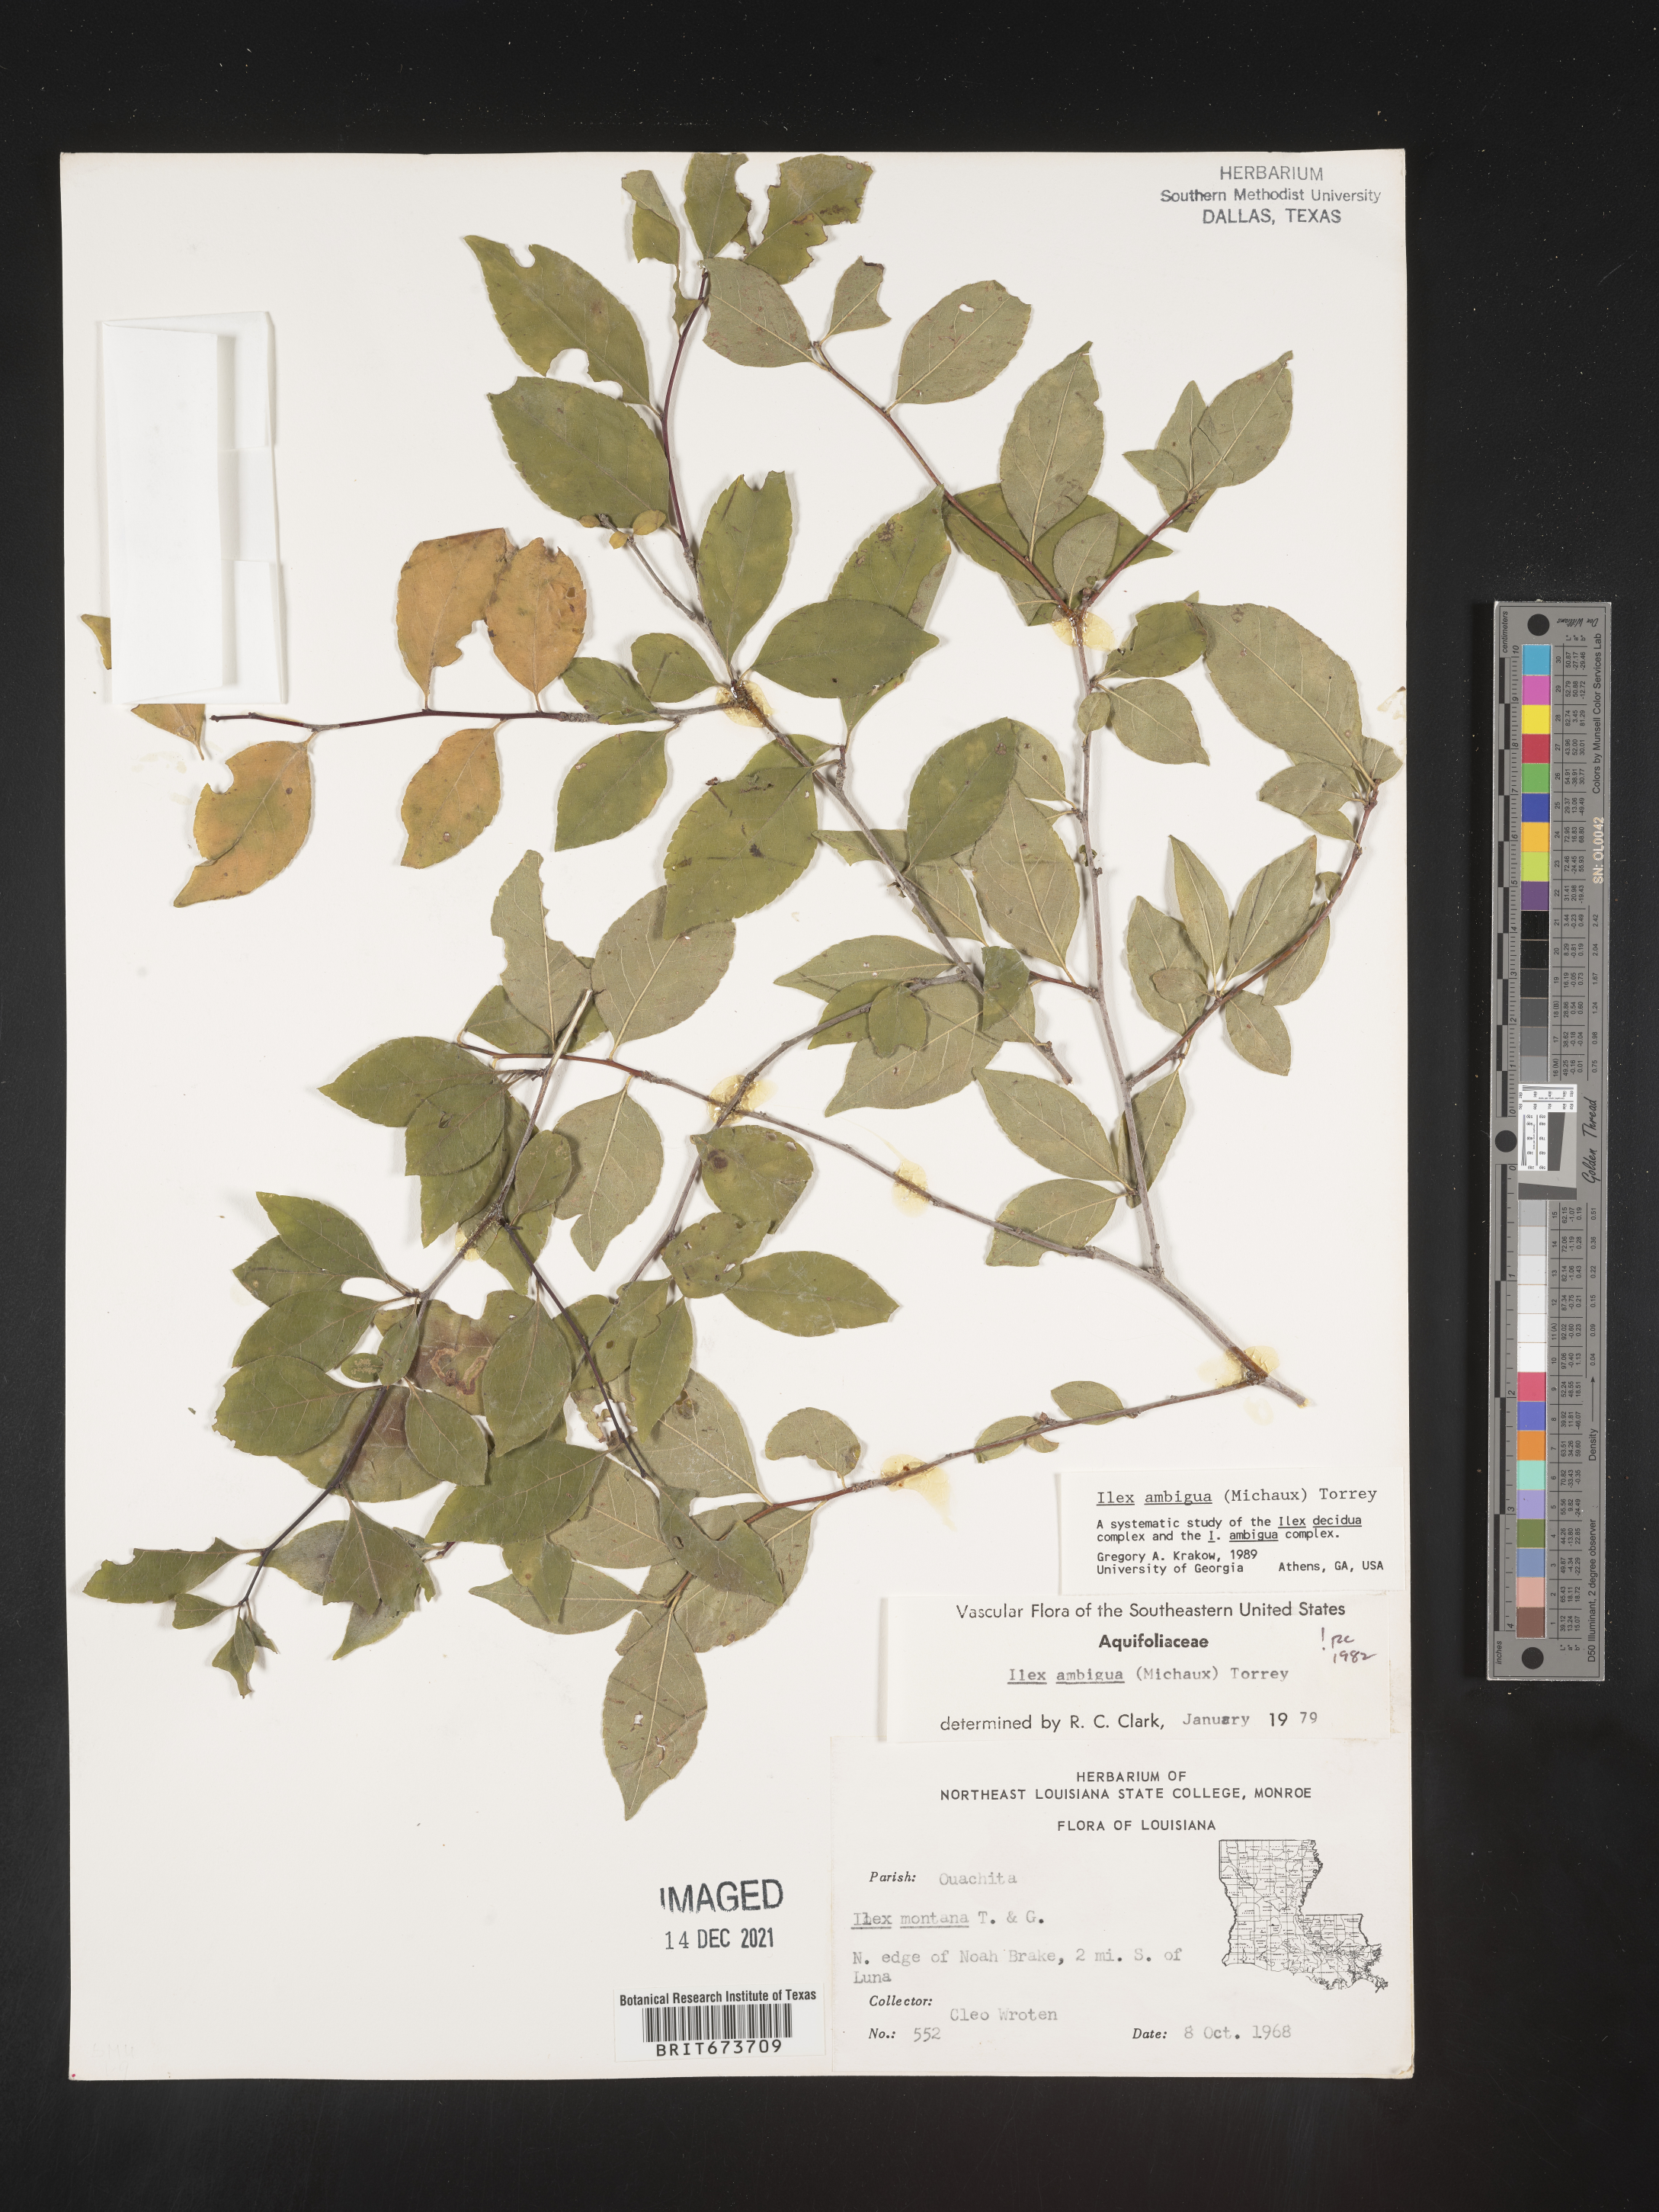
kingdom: Plantae
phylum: Tracheophyta
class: Magnoliopsida
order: Aquifoliales
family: Aquifoliaceae
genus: Ilex
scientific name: Ilex ambigua
